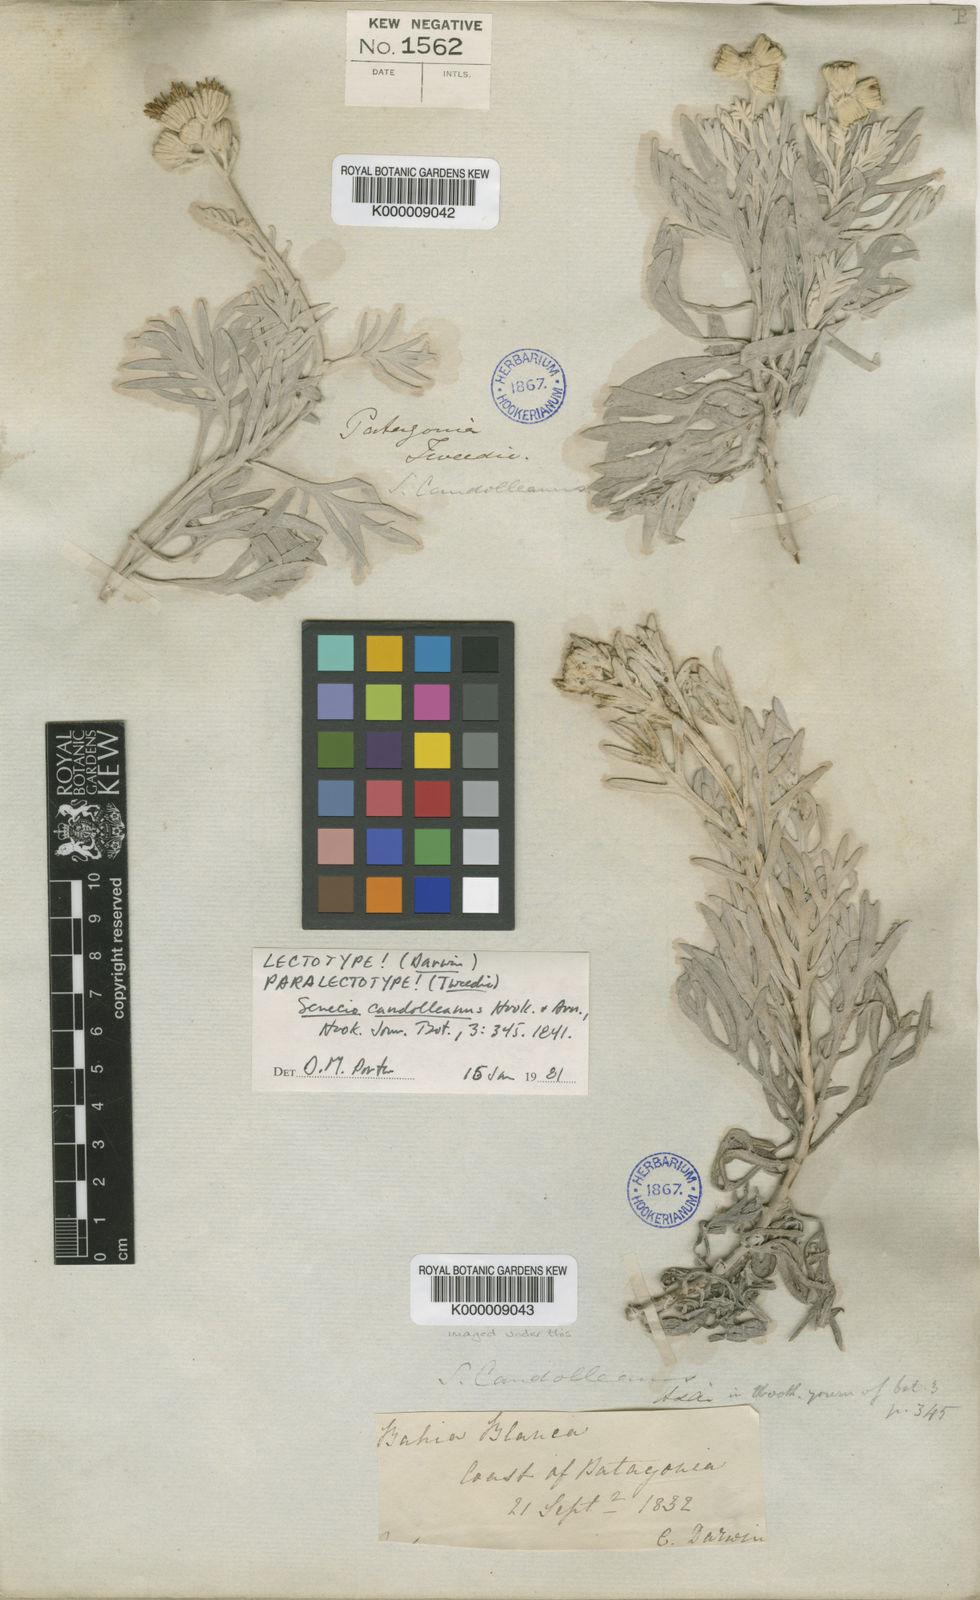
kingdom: Plantae
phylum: Tracheophyta
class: Magnoliopsida
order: Asterales
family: Asteraceae
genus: Senecio
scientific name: Senecio leucopeplus
